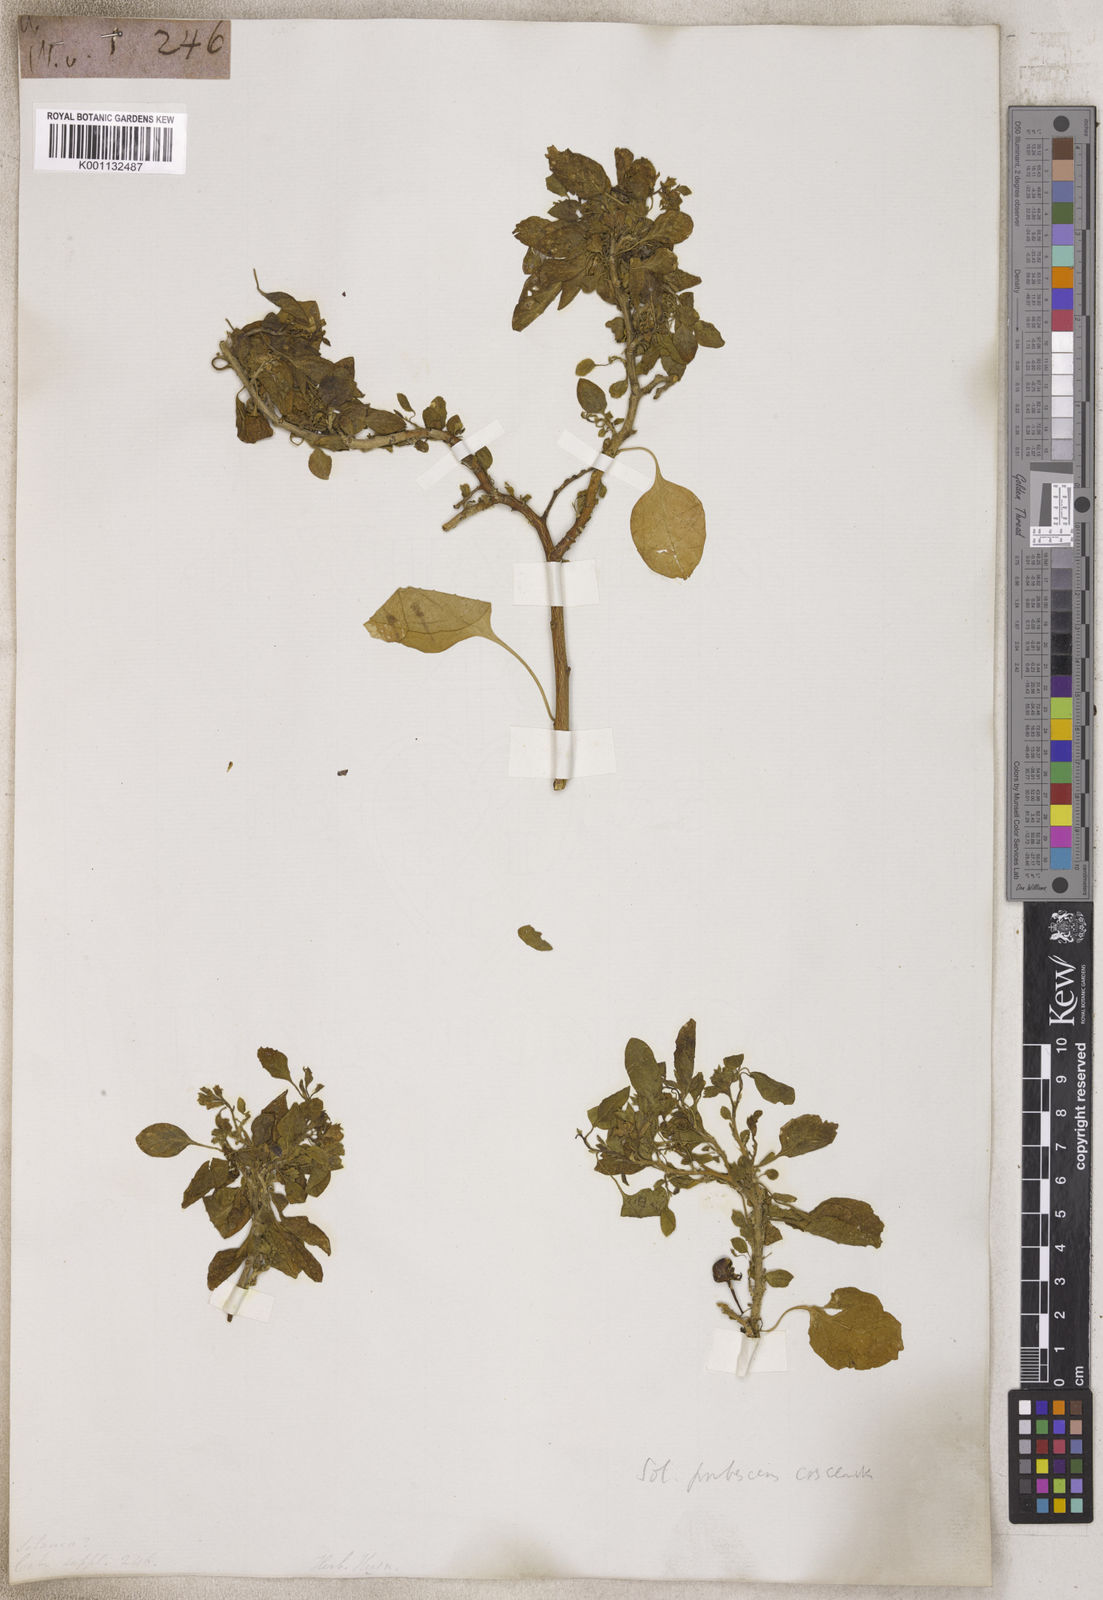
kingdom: Plantae
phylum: Tracheophyta
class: Magnoliopsida
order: Solanales
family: Solanaceae
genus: Solanum
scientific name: Solanum
